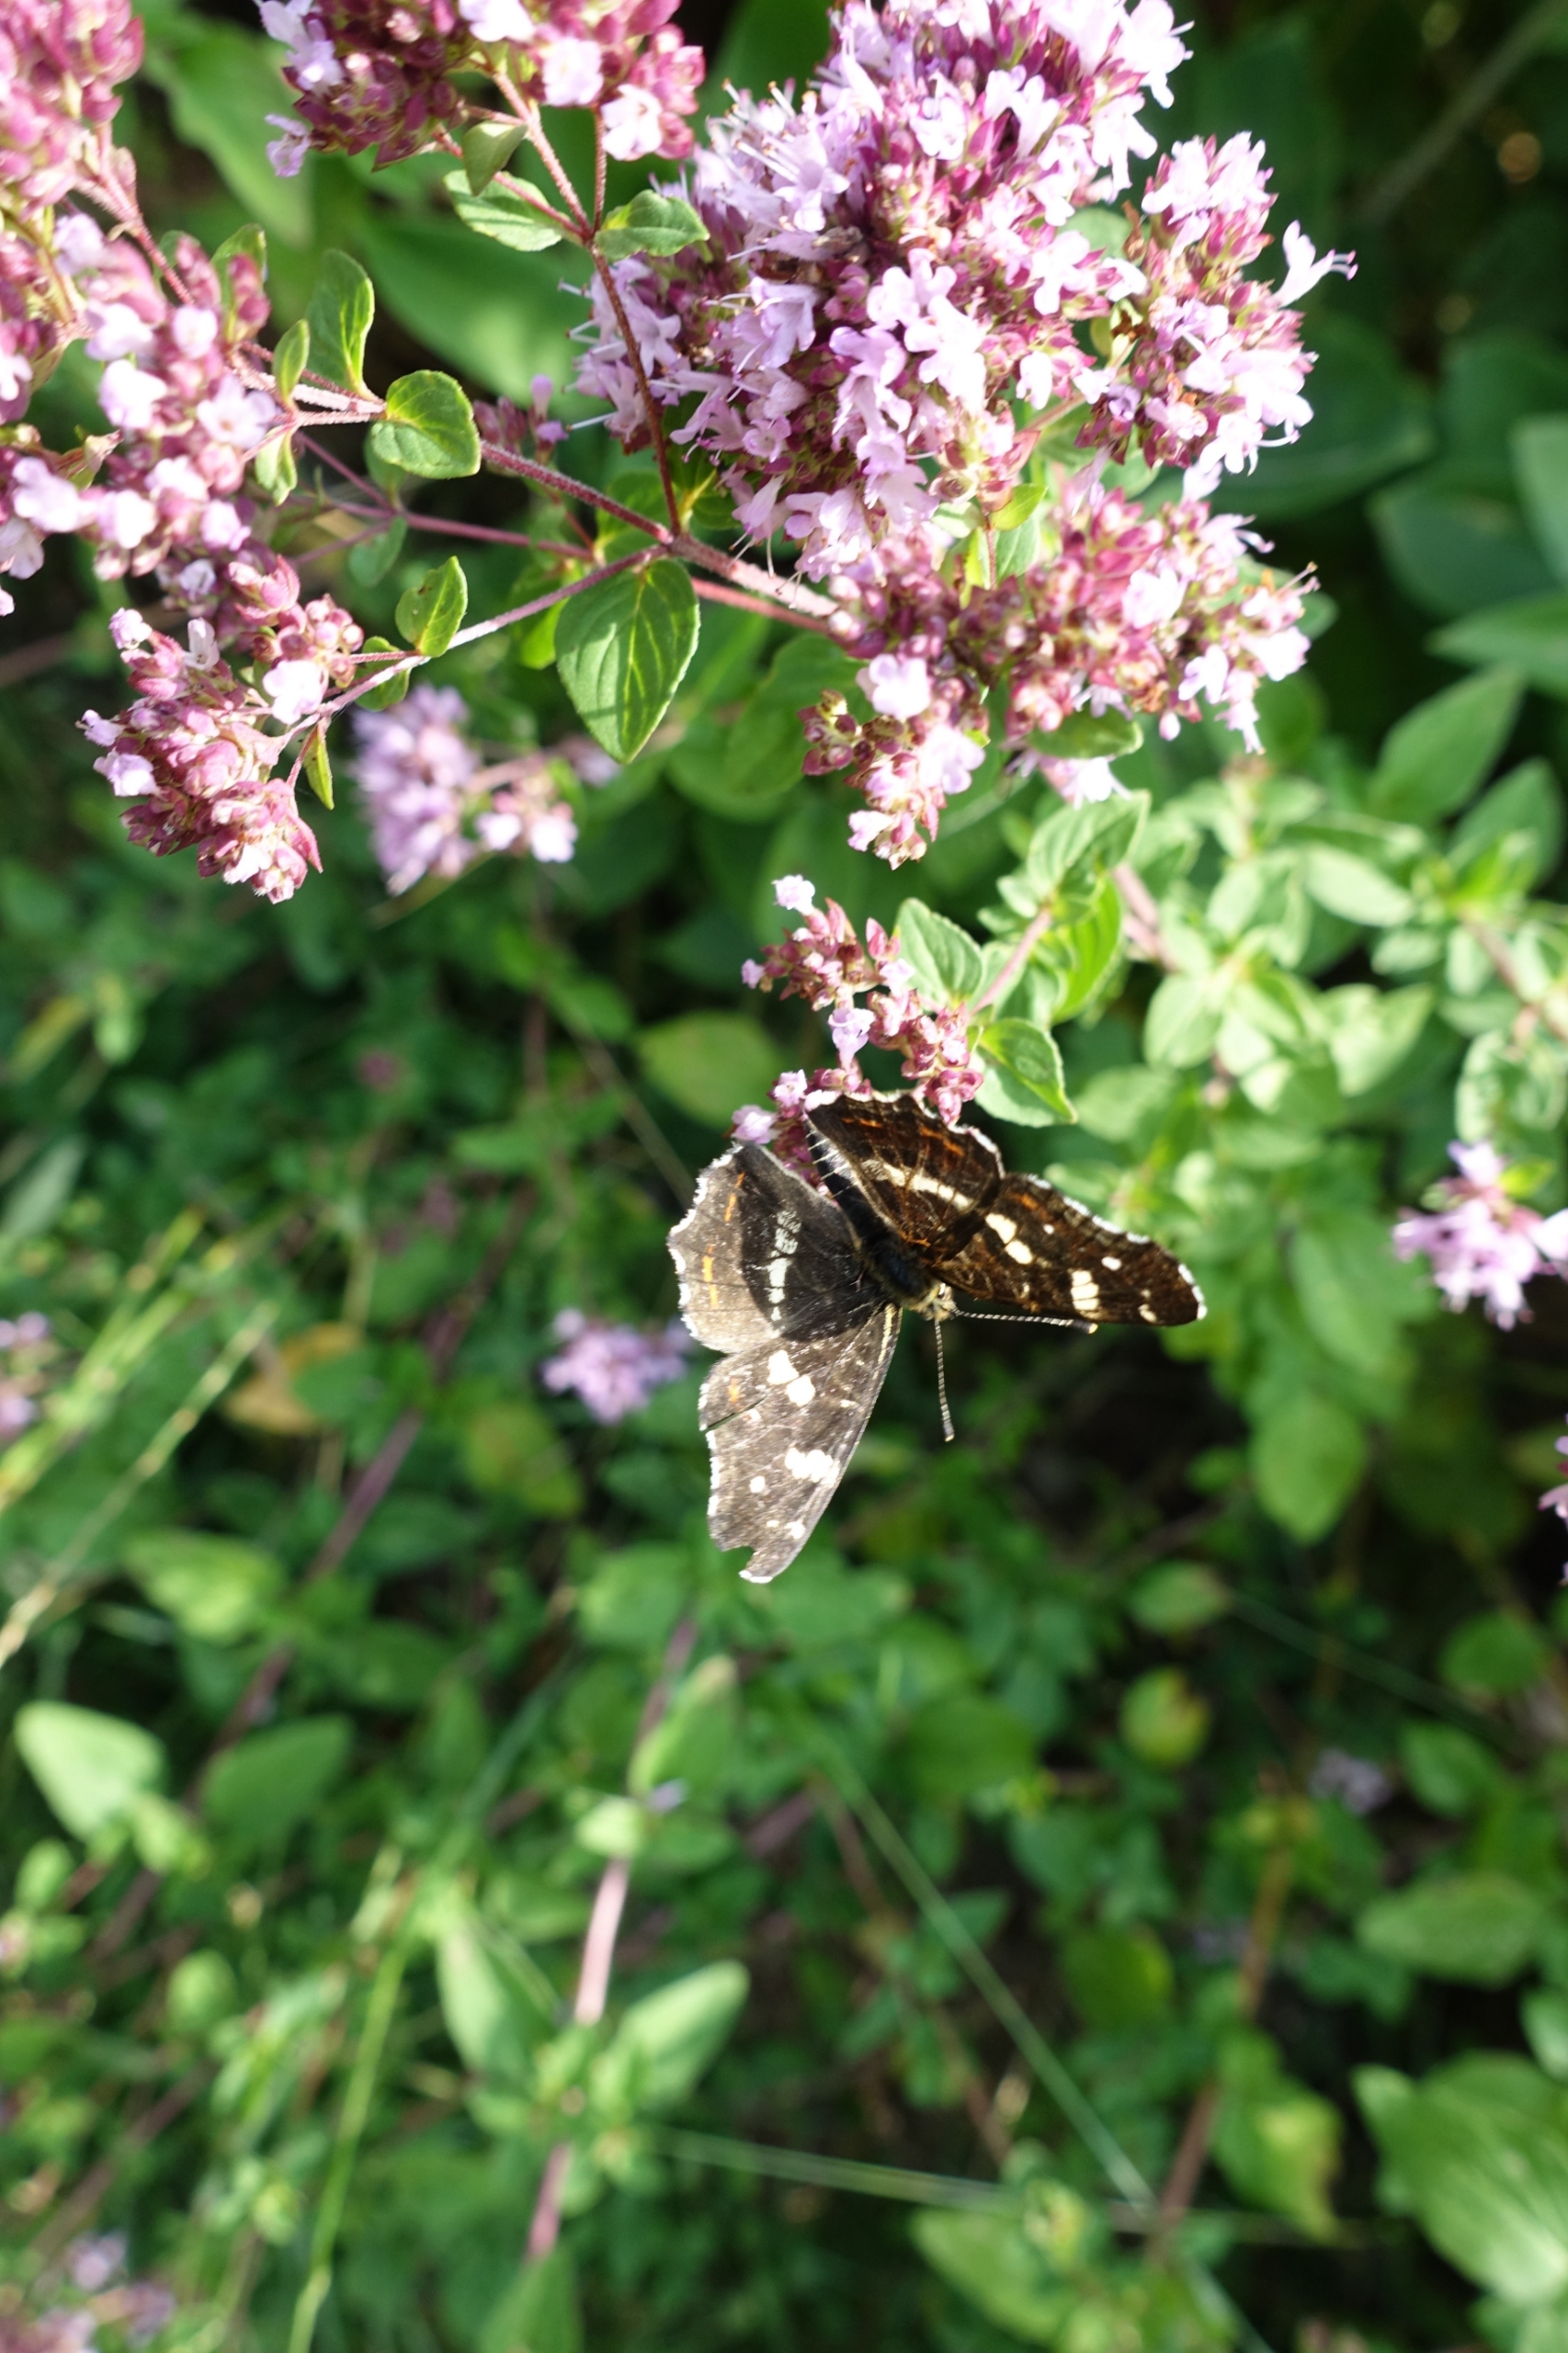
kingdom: Animalia
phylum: Arthropoda
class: Insecta
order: Lepidoptera
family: Nymphalidae
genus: Araschnia
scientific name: Araschnia levana
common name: Nældesommerfugl
